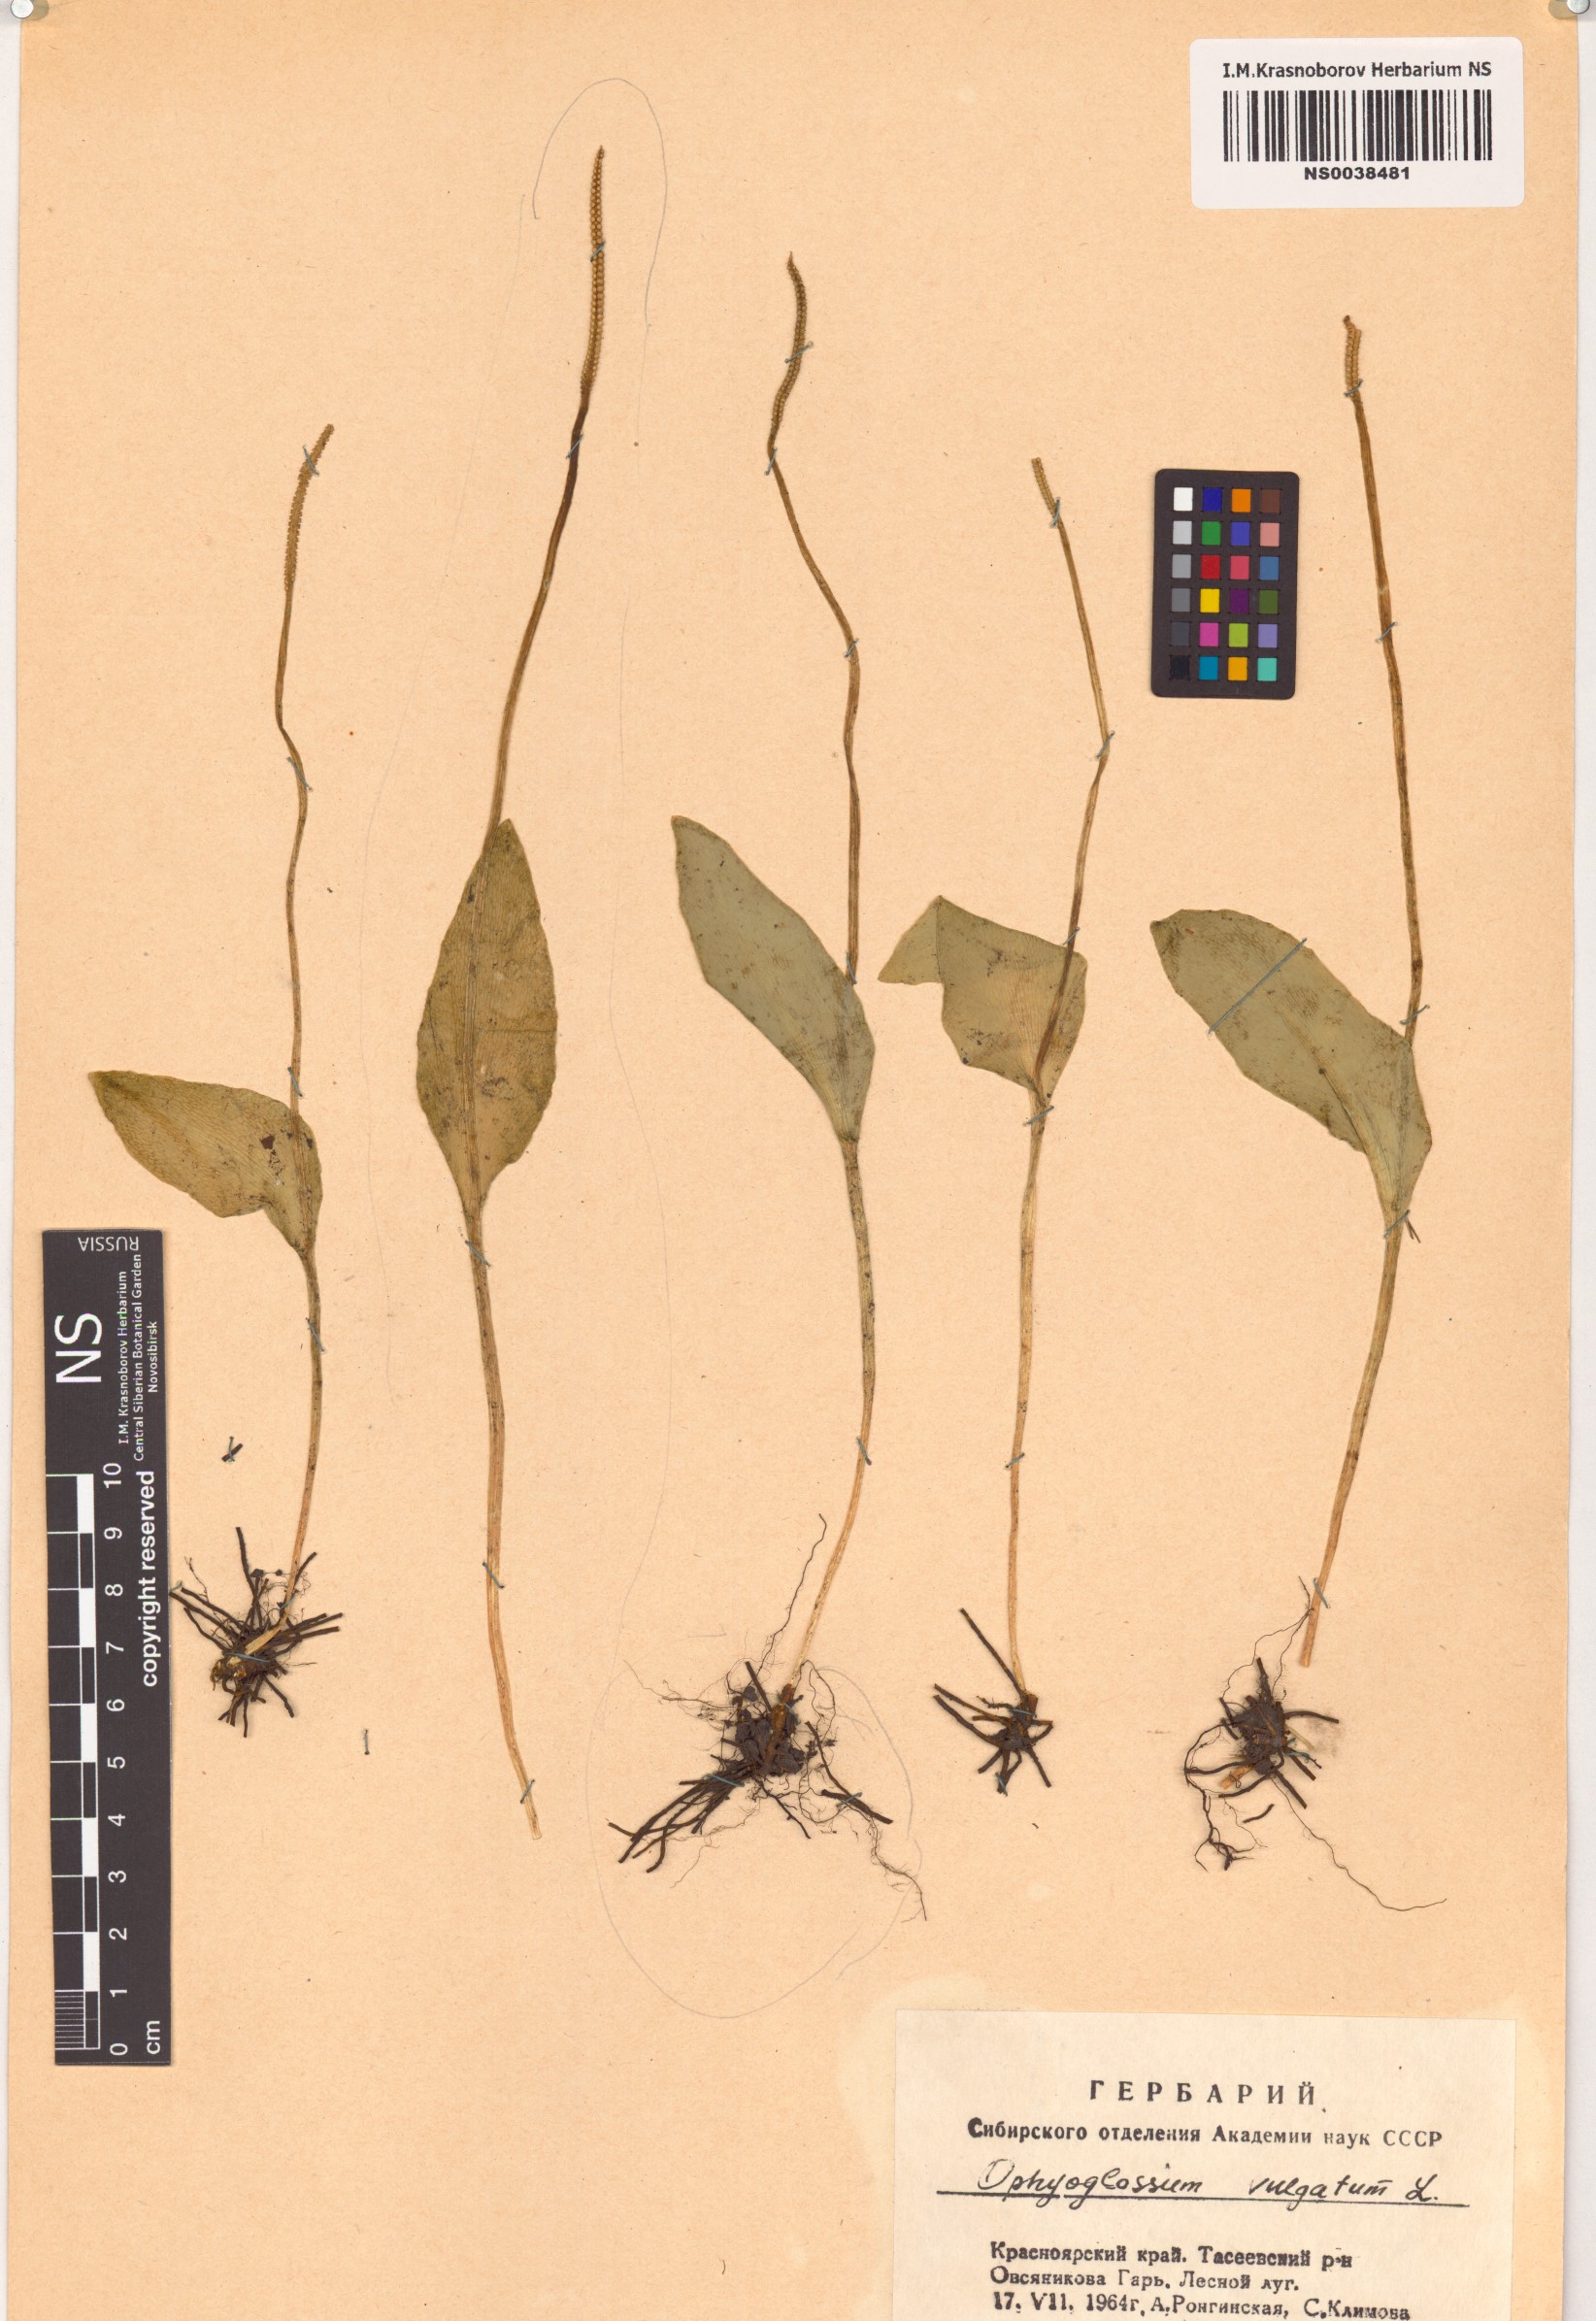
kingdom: Plantae
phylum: Tracheophyta
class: Polypodiopsida
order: Ophioglossales
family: Ophioglossaceae
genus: Ophioglossum
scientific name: Ophioglossum vulgatum
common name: Adder's-tongue
